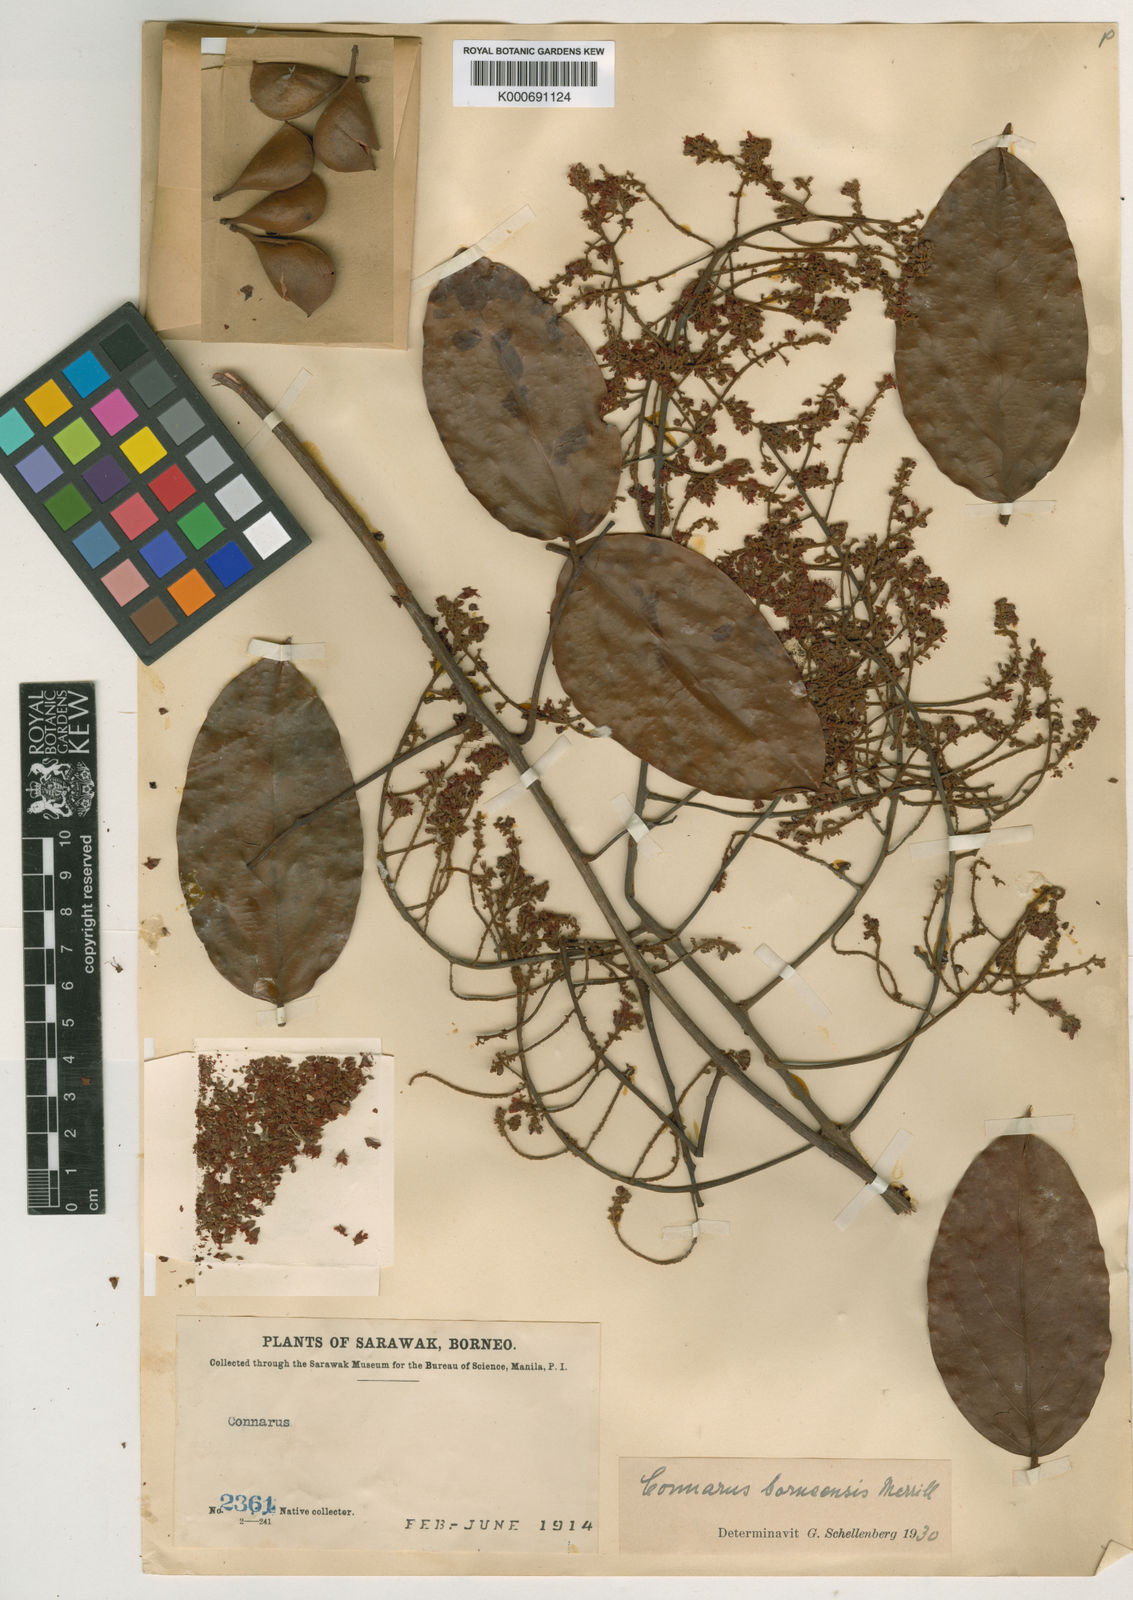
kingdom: Plantae
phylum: Tracheophyta
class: Magnoliopsida
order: Oxalidales
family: Connaraceae
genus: Connarus
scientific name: Connarus semidecandrus
